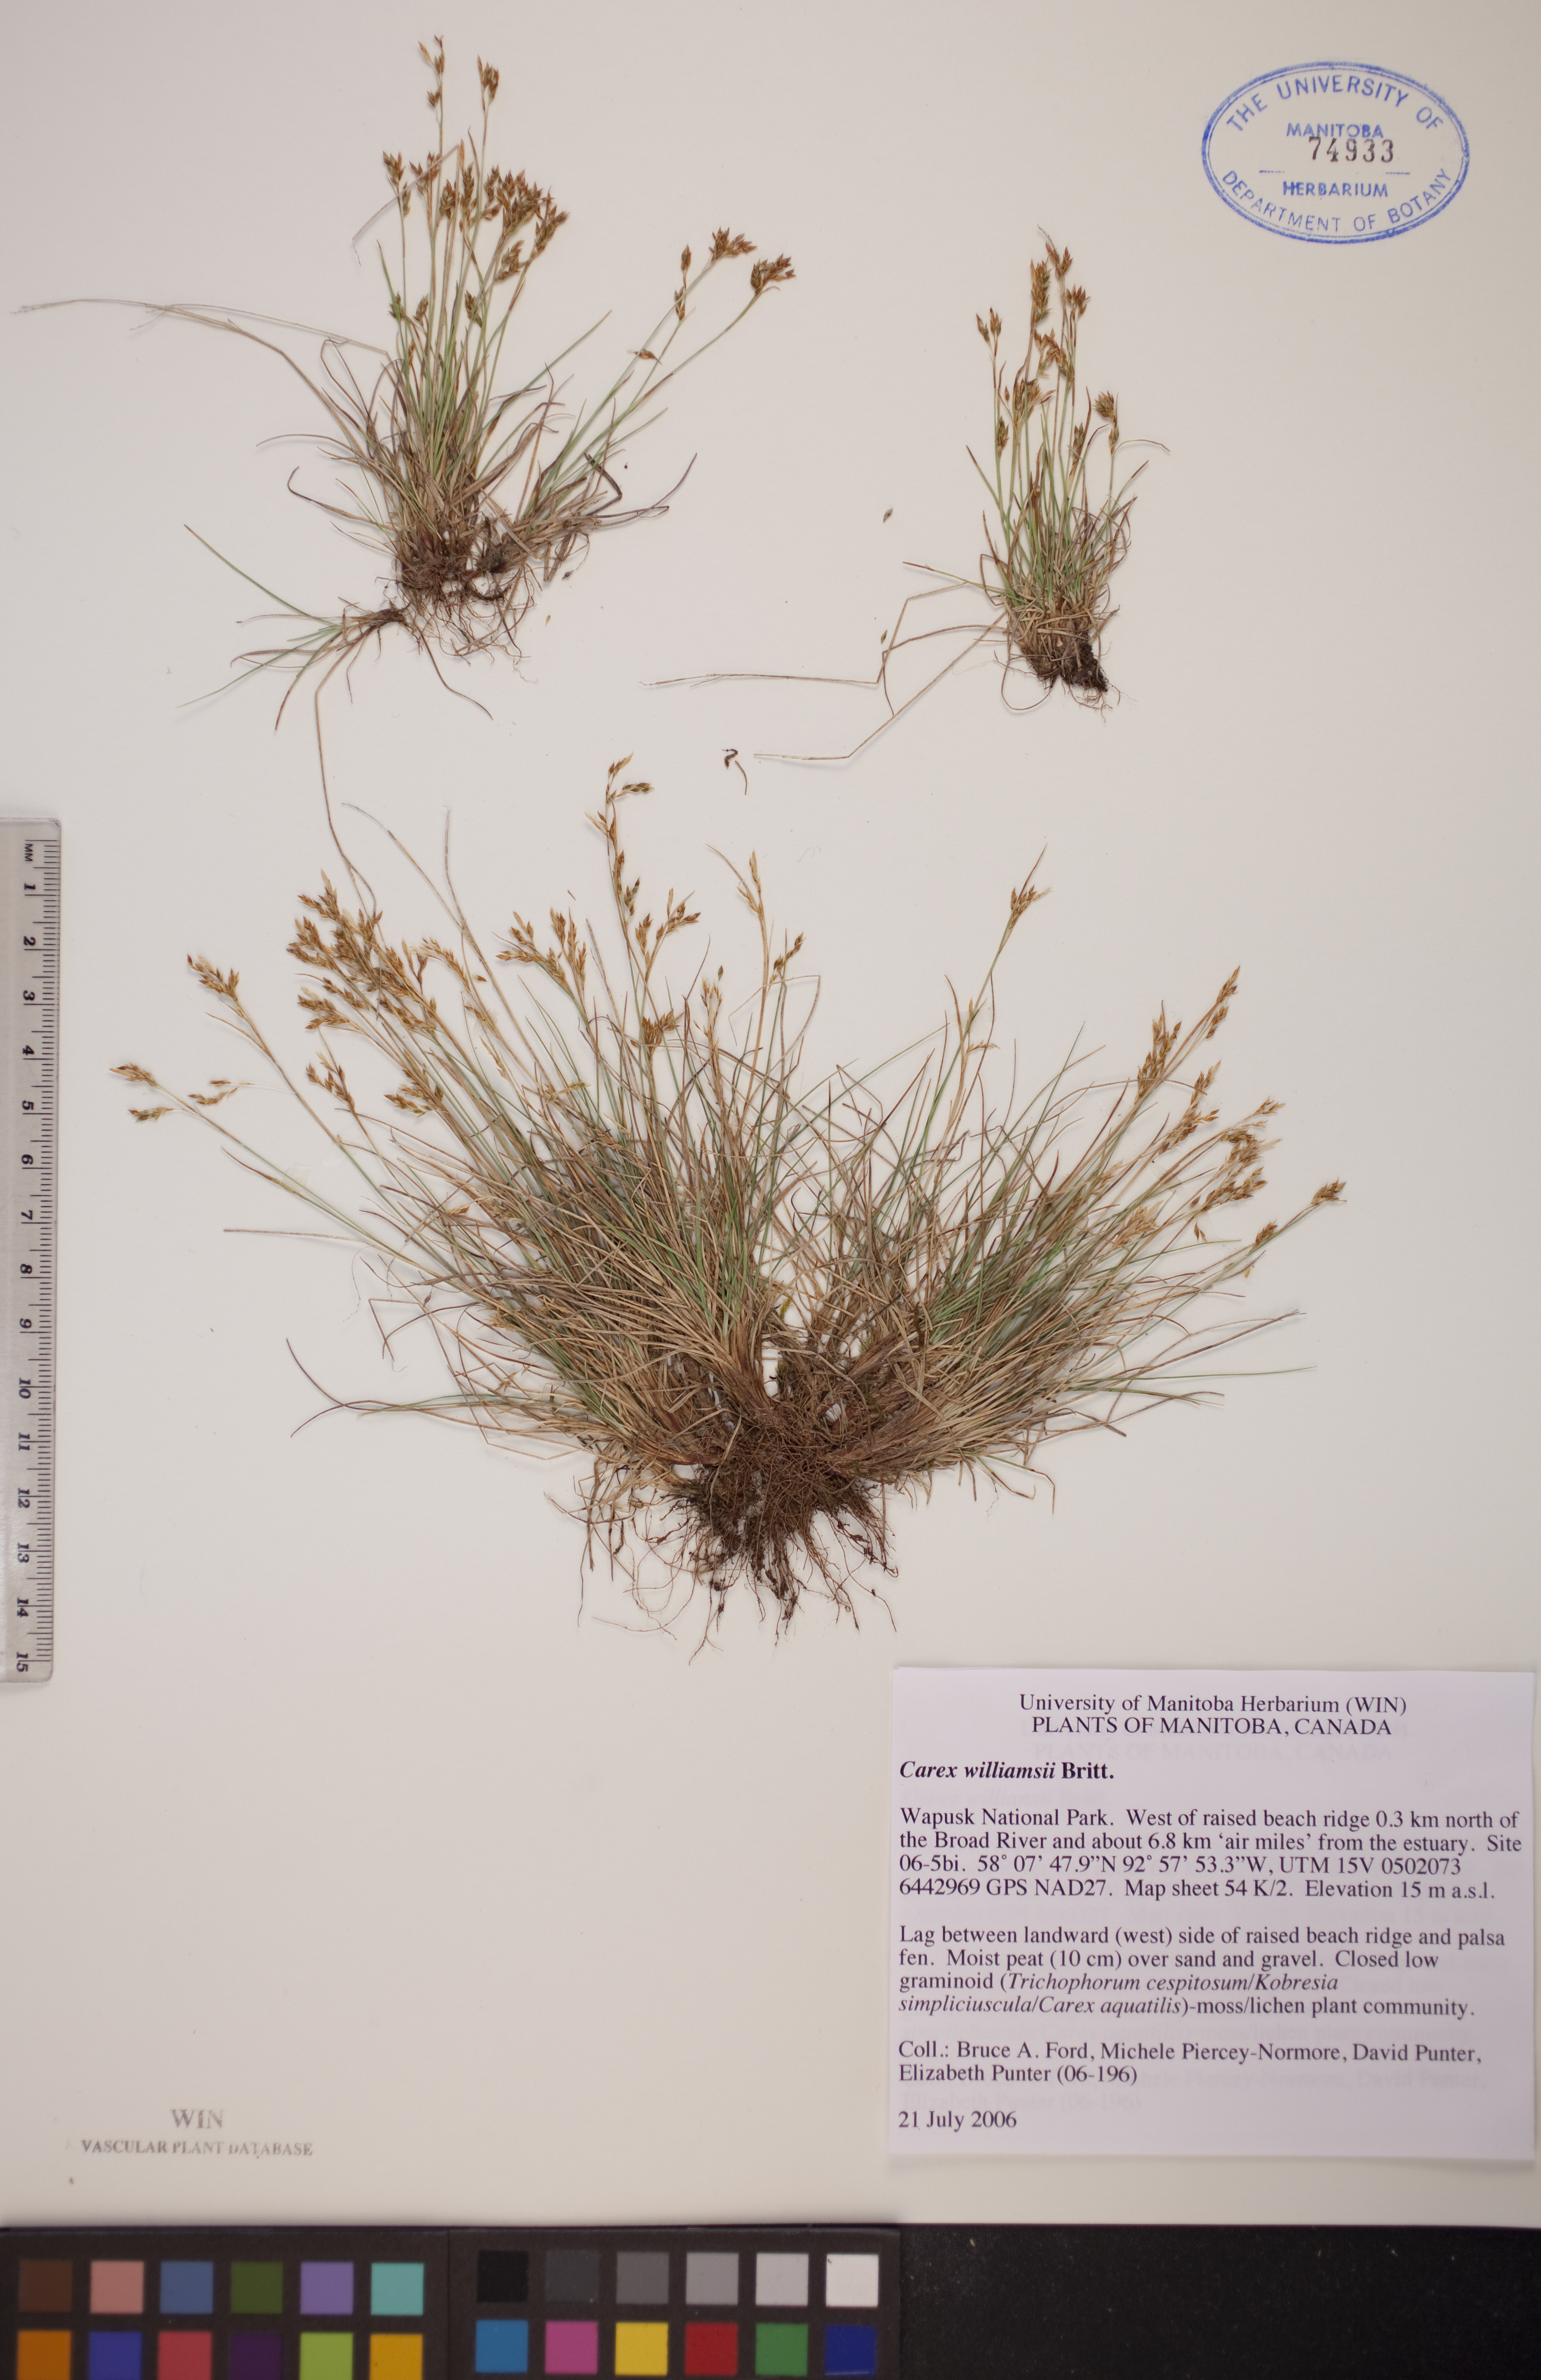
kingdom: Plantae
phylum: Tracheophyta
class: Liliopsida
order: Poales
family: Cyperaceae
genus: Carex
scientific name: Carex williamsii
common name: Williams' sedge
